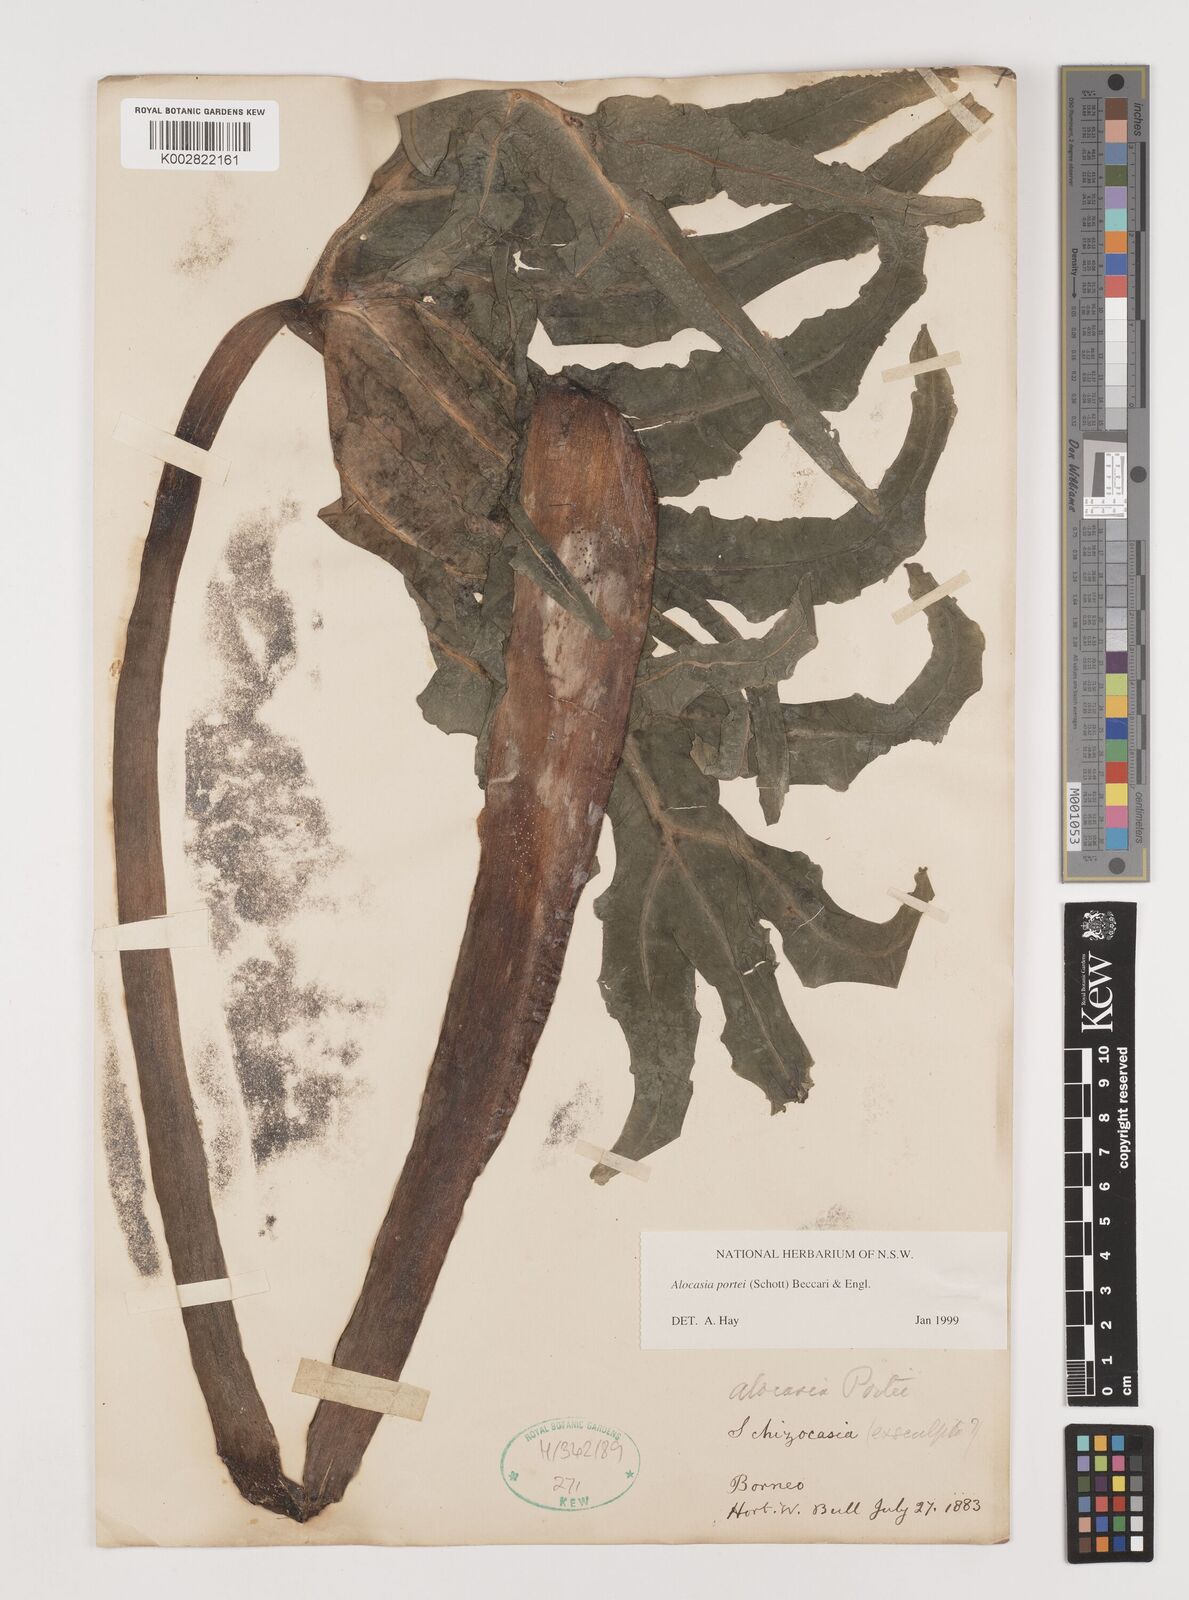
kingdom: Plantae
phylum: Tracheophyta
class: Liliopsida
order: Alismatales
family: Araceae
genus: Alocasia
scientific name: Alocasia portei
